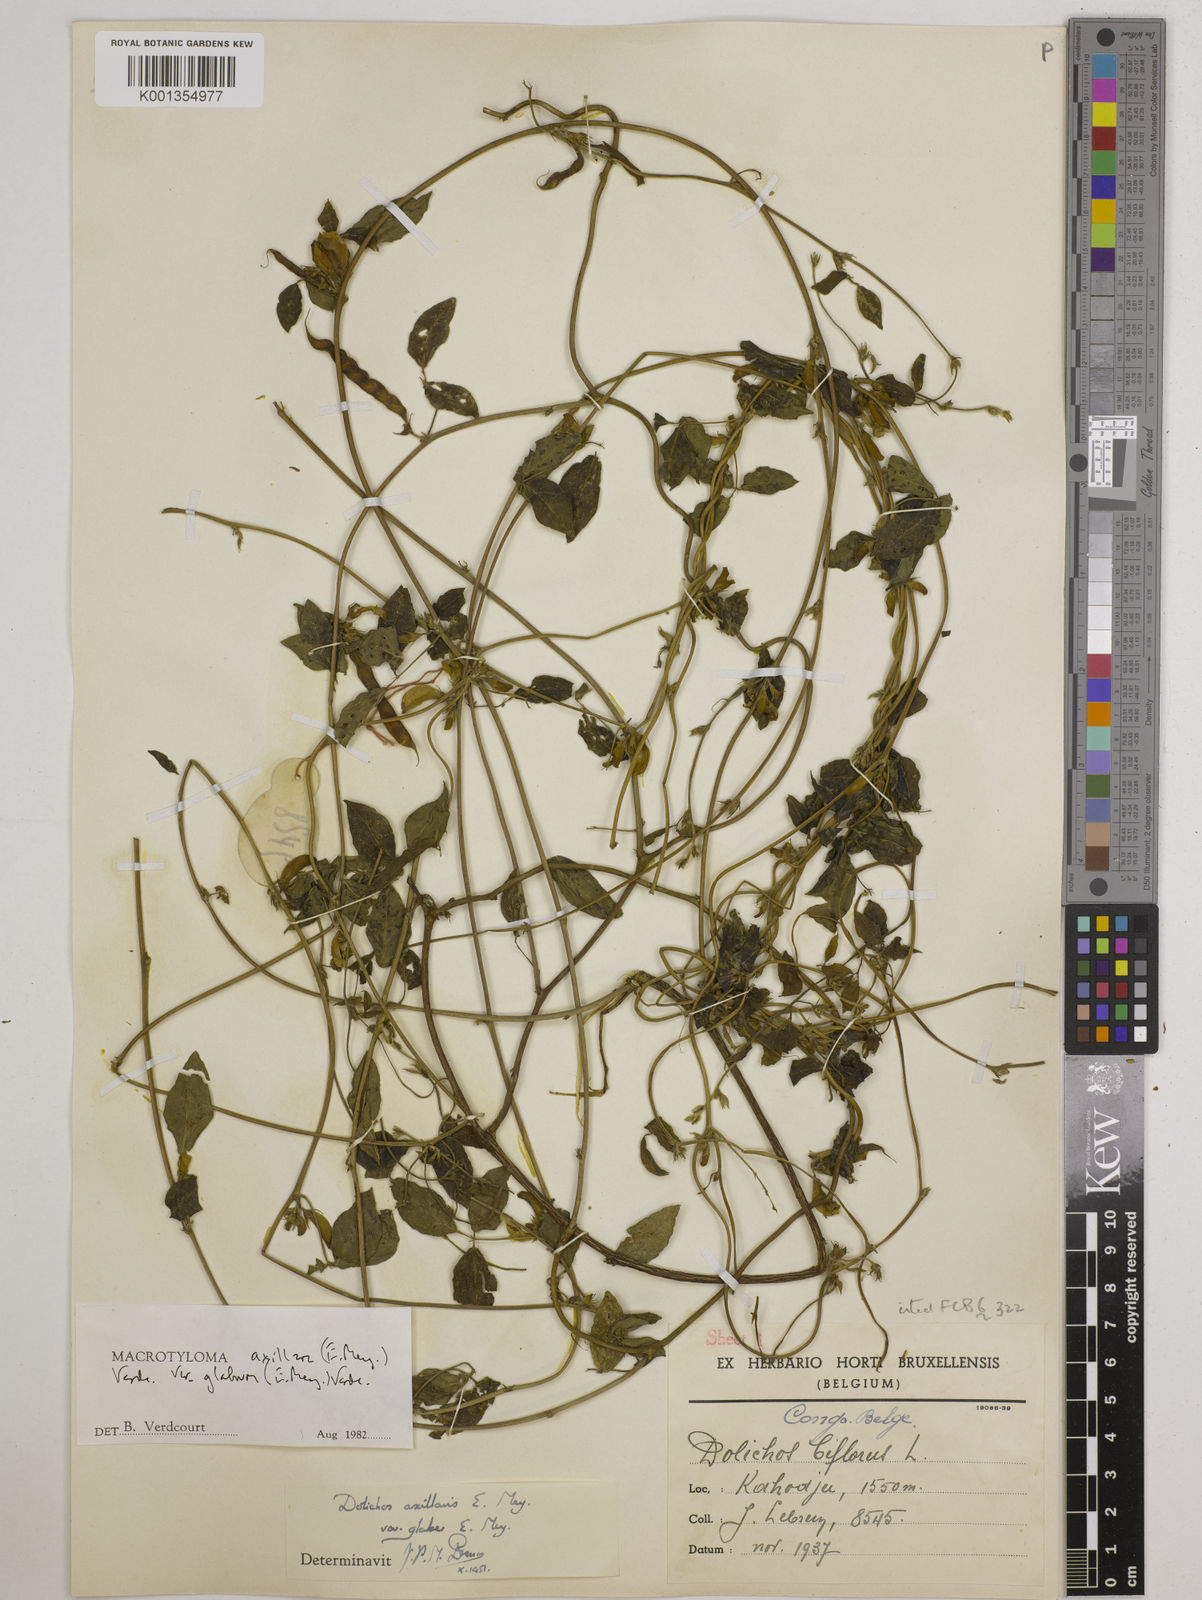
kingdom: Plantae
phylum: Tracheophyta
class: Magnoliopsida
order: Fabales
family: Fabaceae
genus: Macrotyloma
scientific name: Macrotyloma
